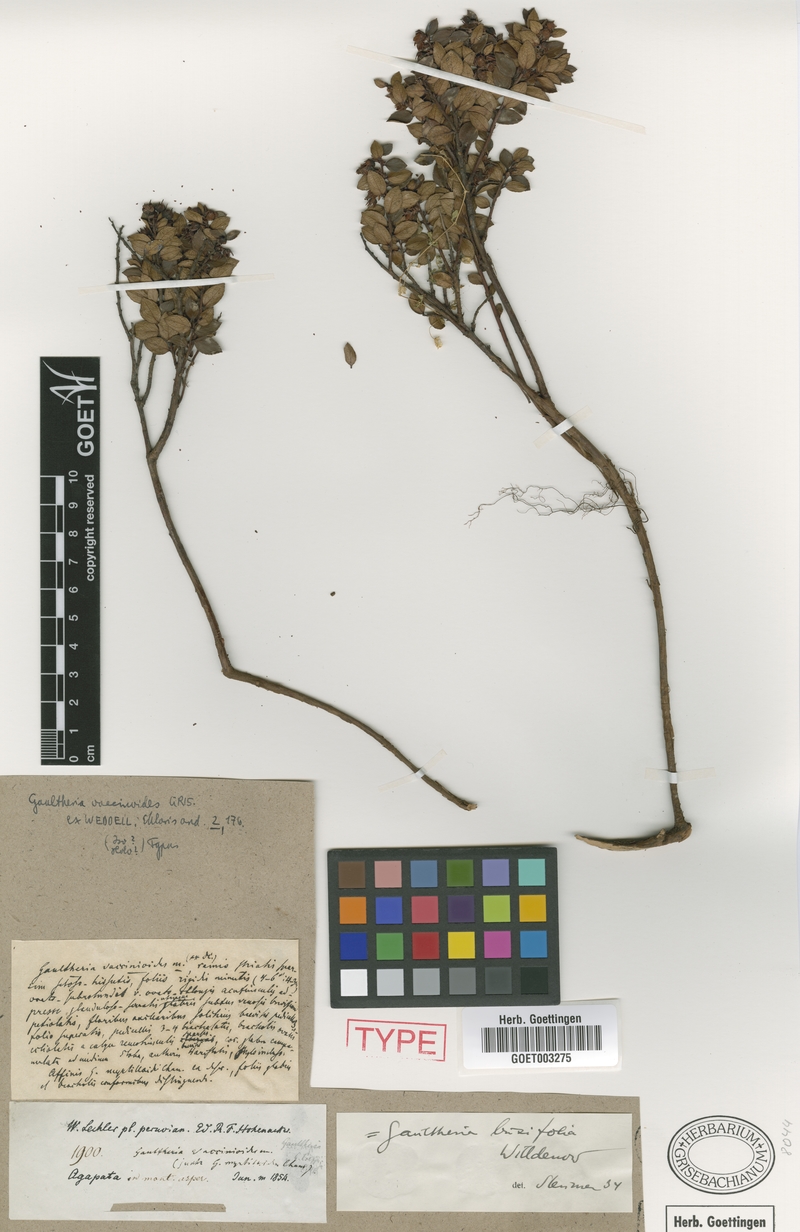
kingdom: Plantae
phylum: Tracheophyta
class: Magnoliopsida
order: Ericales
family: Ericaceae
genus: Gaultheria
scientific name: Gaultheria vaccinioides
